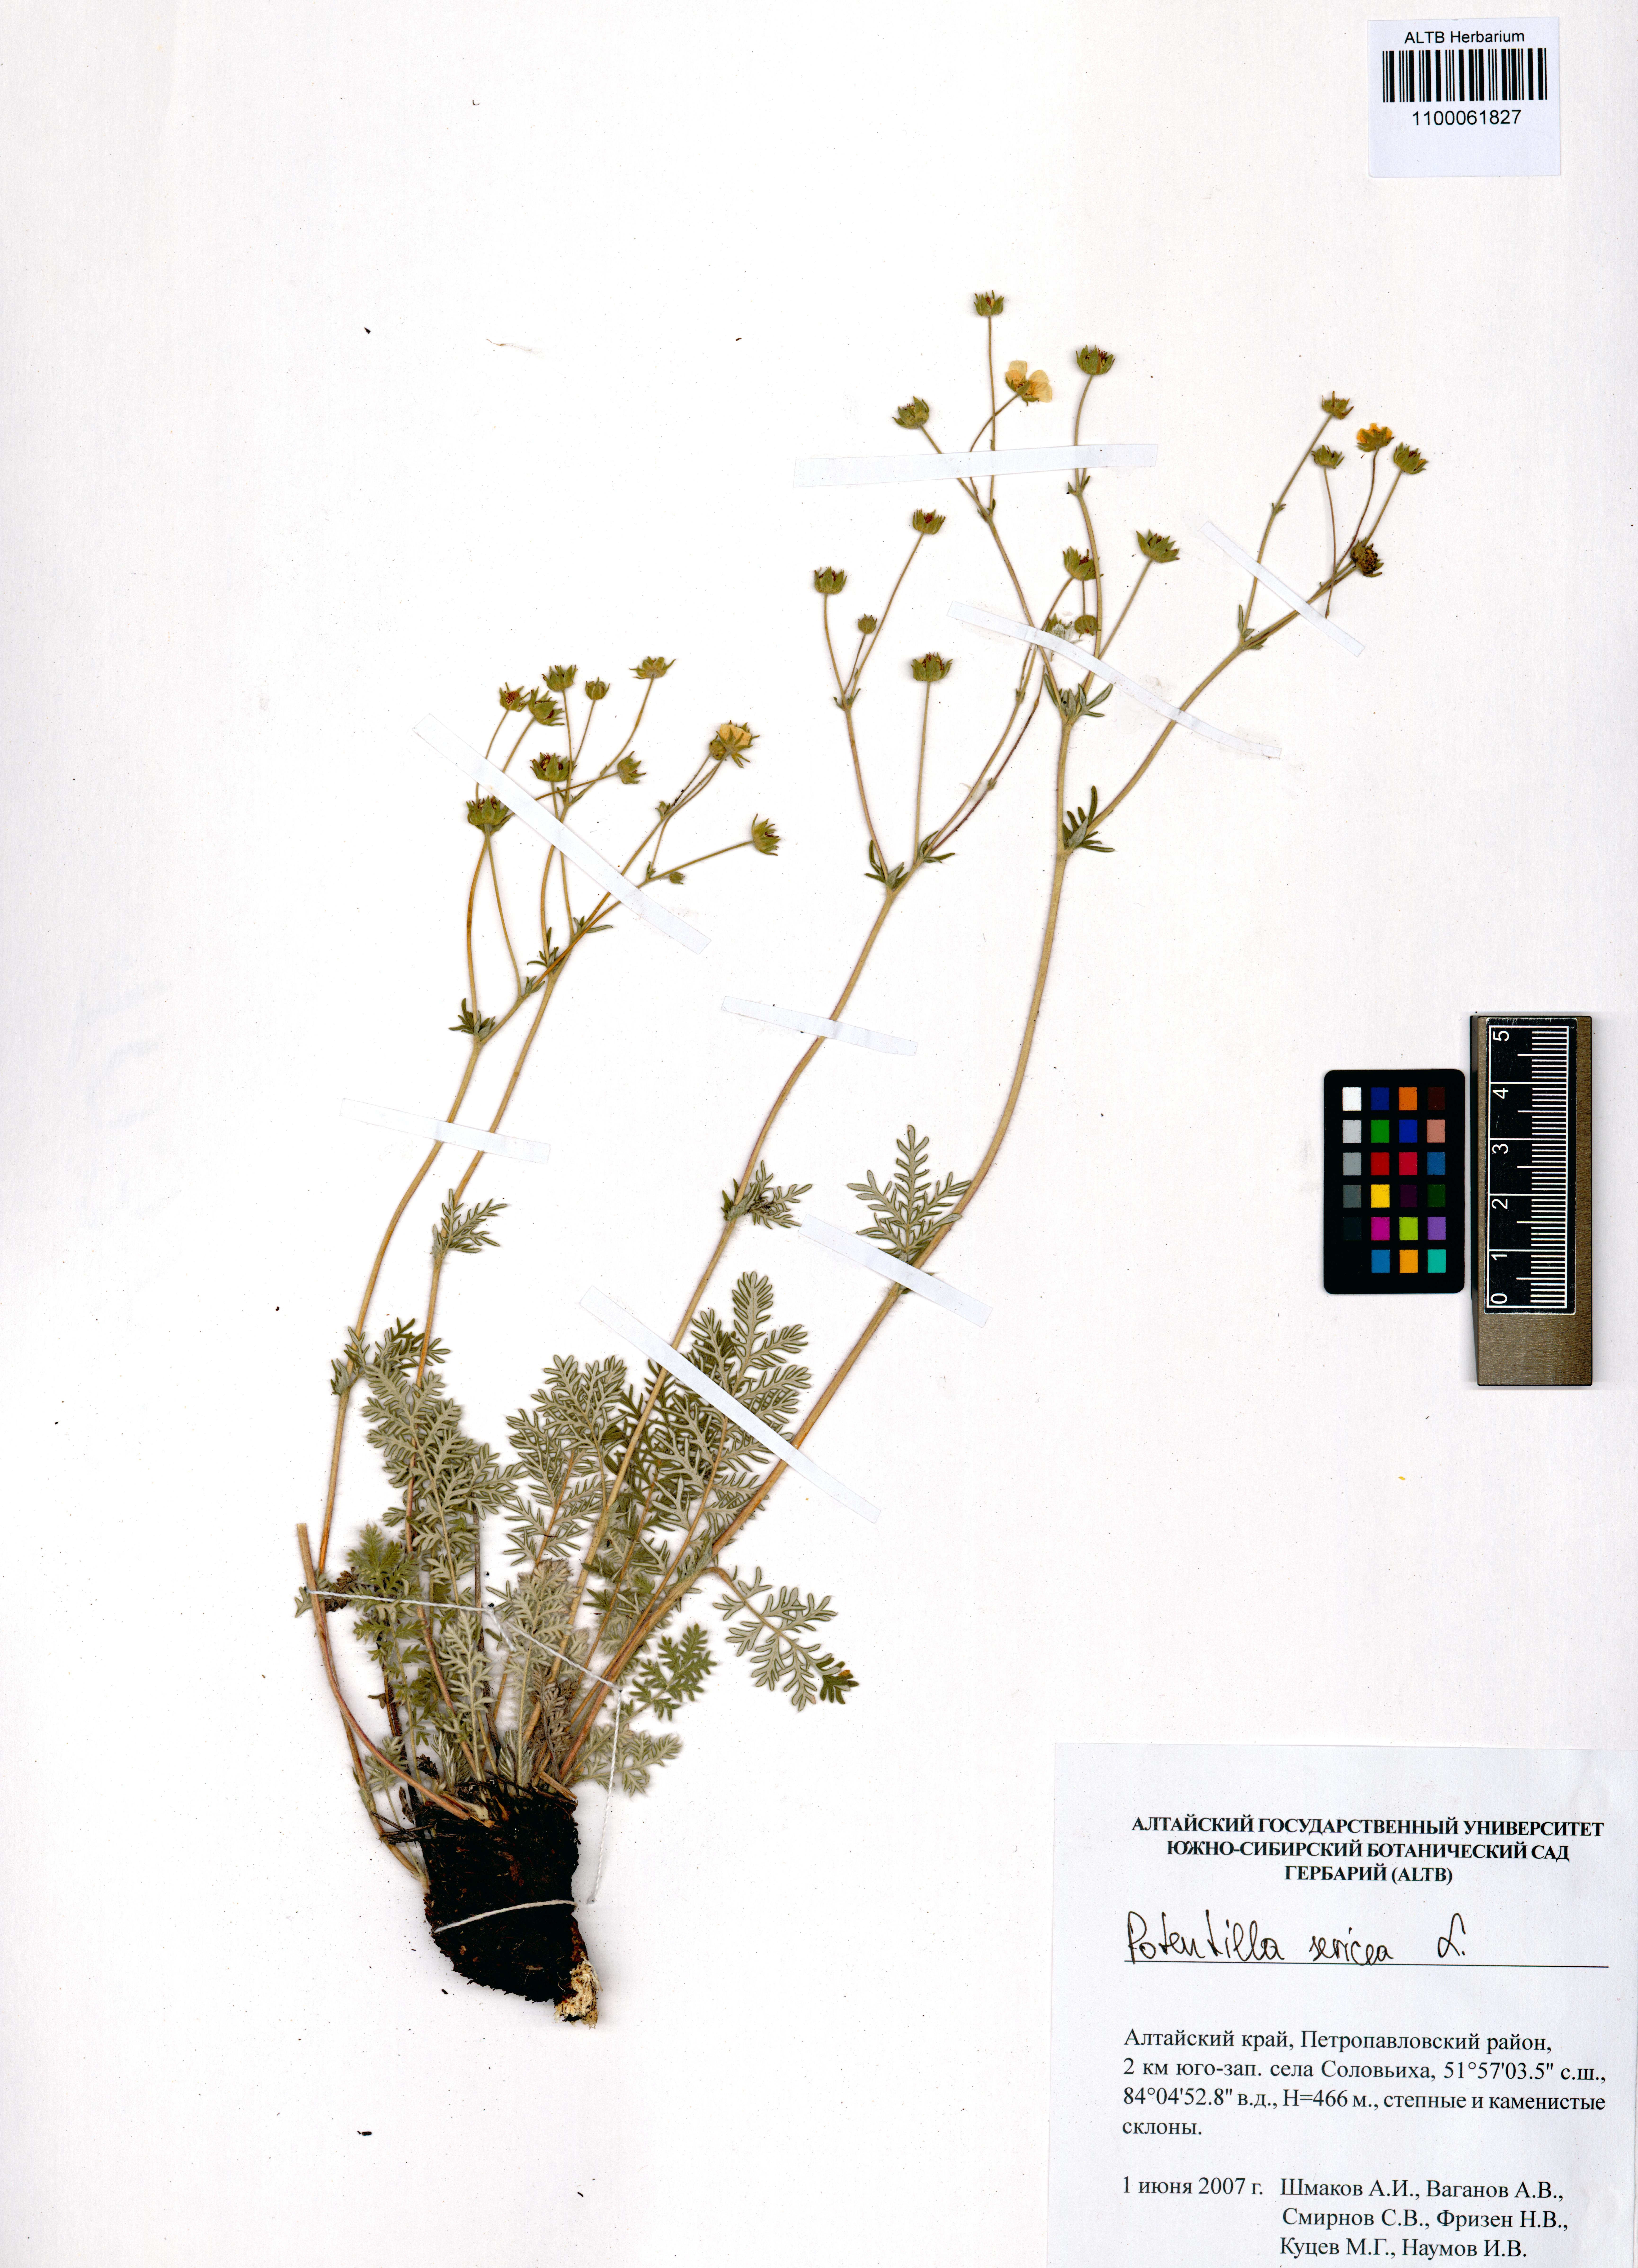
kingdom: Plantae
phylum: Tracheophyta
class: Magnoliopsida
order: Rosales
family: Rosaceae
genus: Potentilla
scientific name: Potentilla sericea
